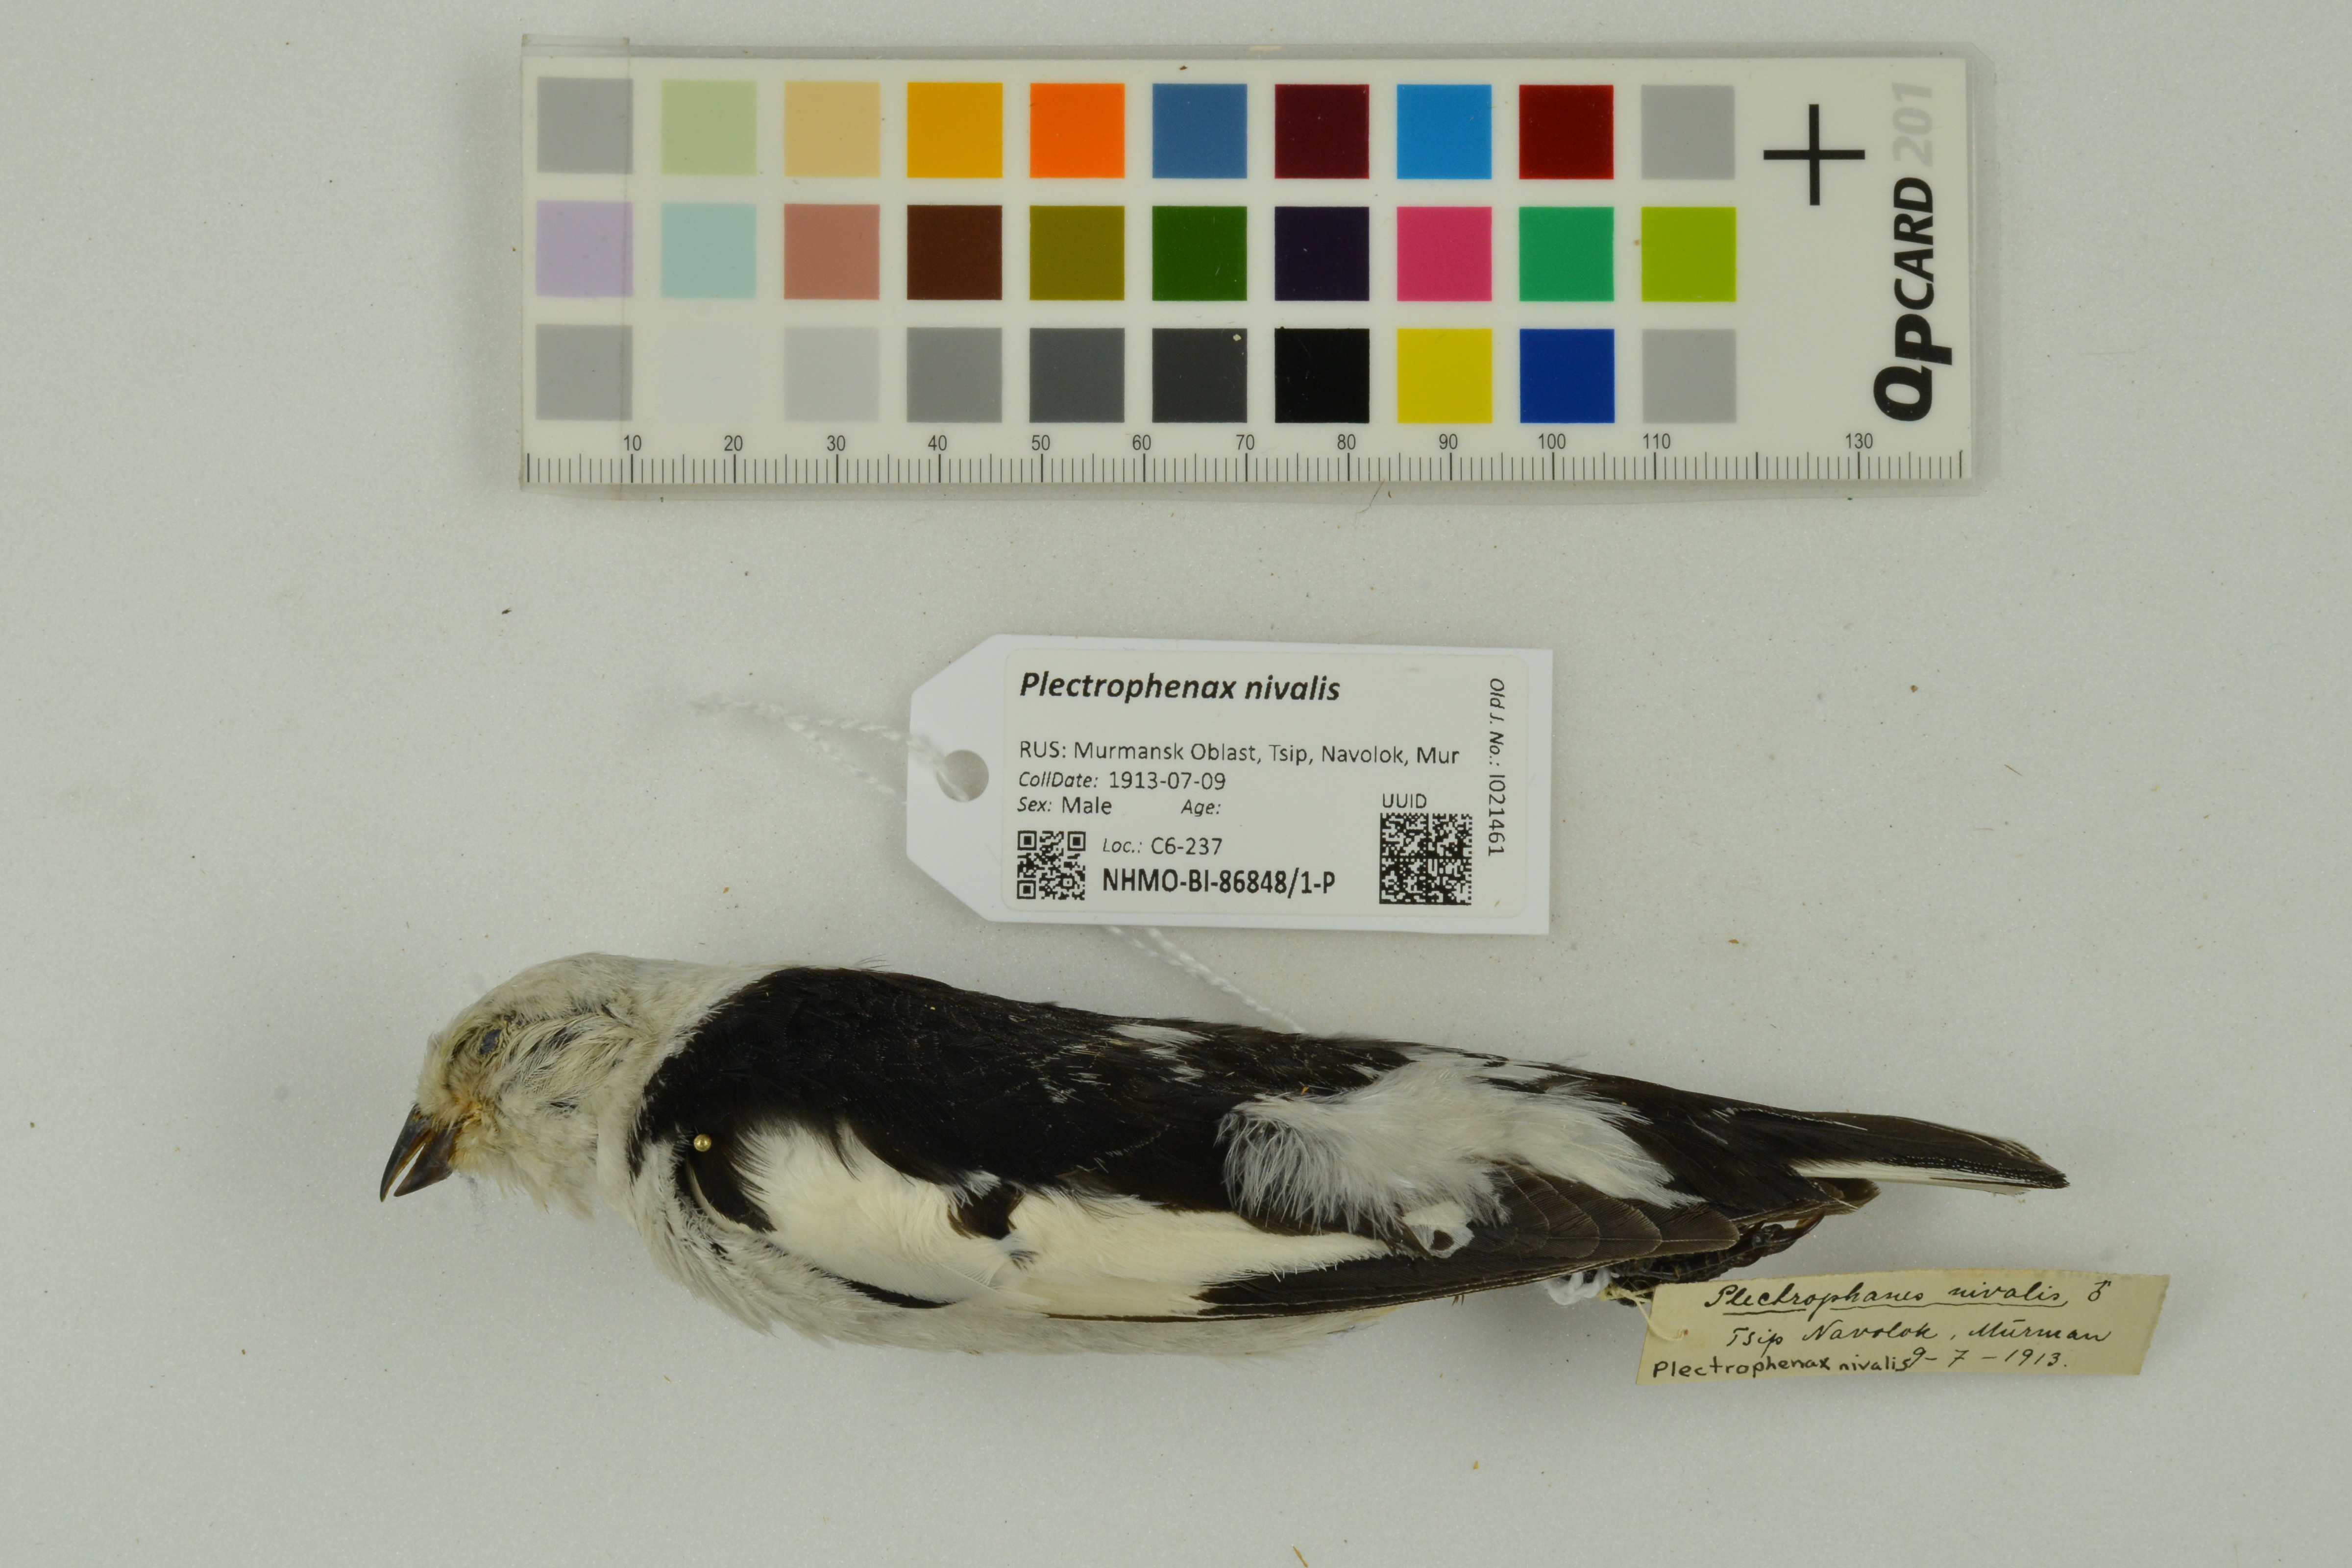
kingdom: Animalia
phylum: Chordata
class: Aves
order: Passeriformes
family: Calcariidae
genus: Plectrophenax
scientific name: Plectrophenax nivalis
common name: Snow bunting
